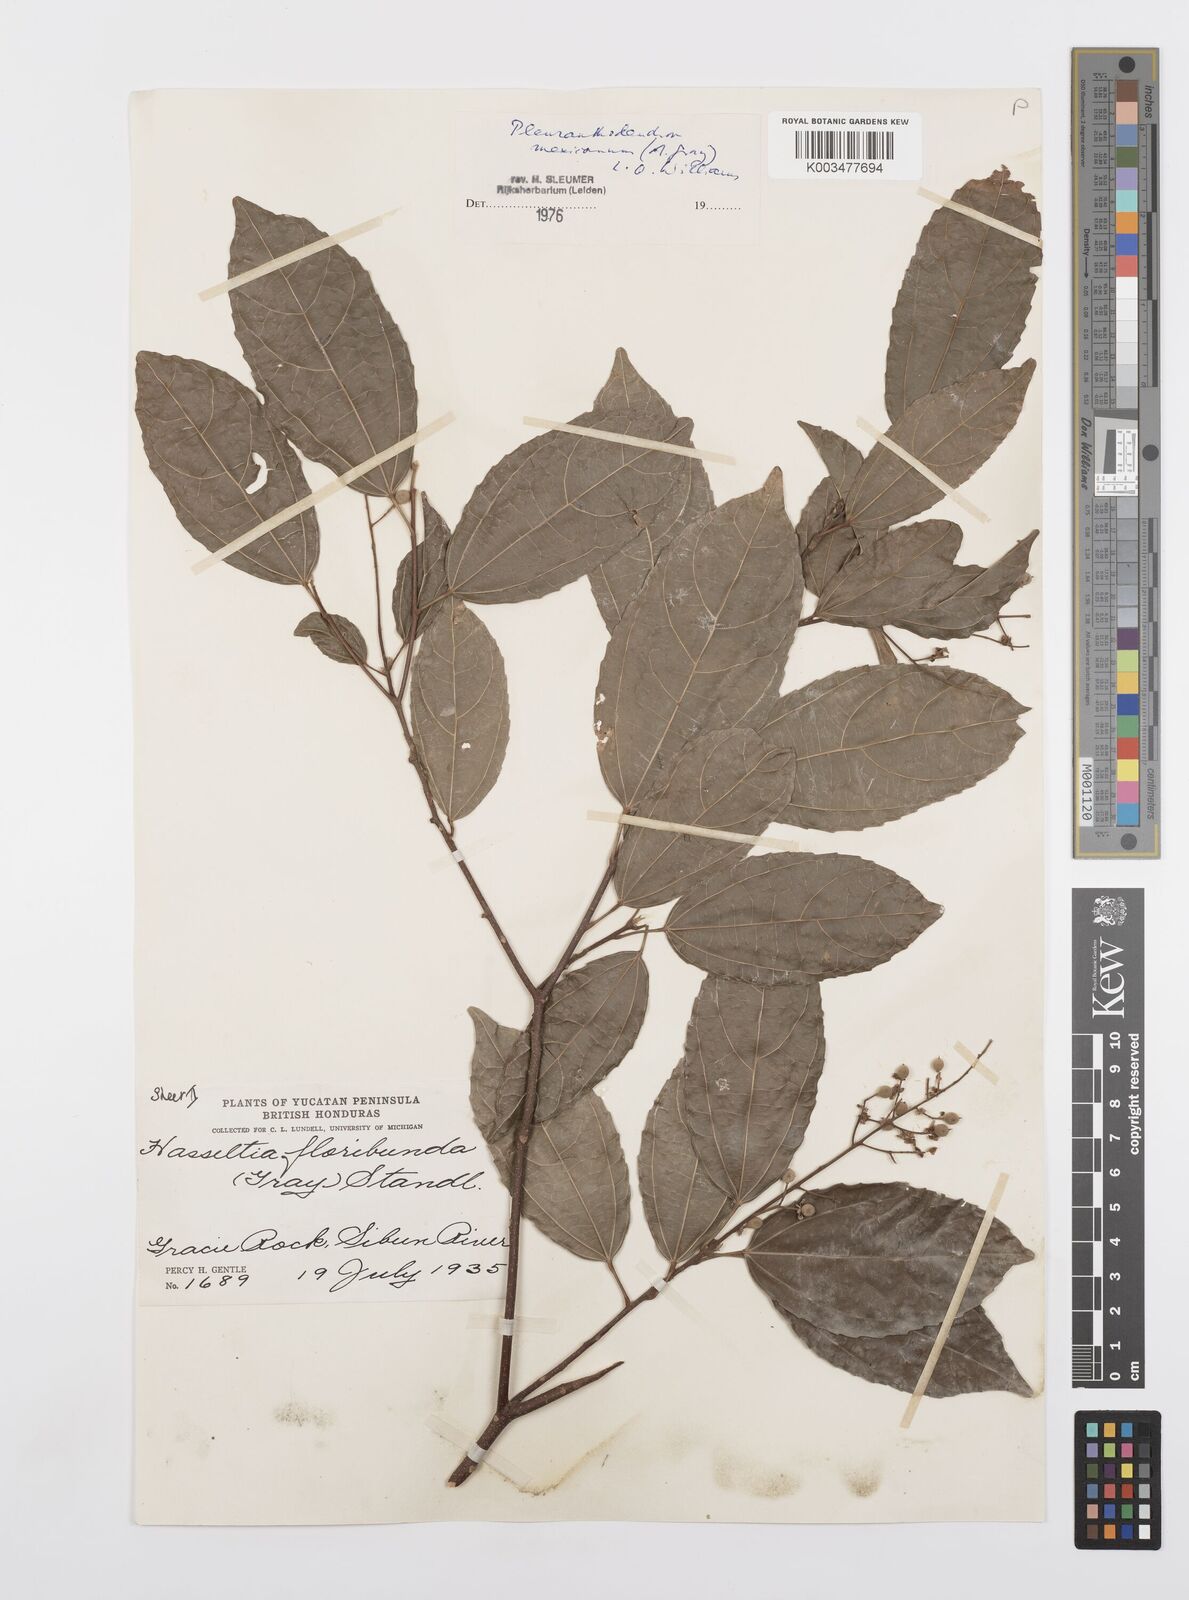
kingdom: Plantae
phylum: Tracheophyta
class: Magnoliopsida
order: Malpighiales
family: Salicaceae
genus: Pleuranthodendron
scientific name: Pleuranthodendron lindenii
